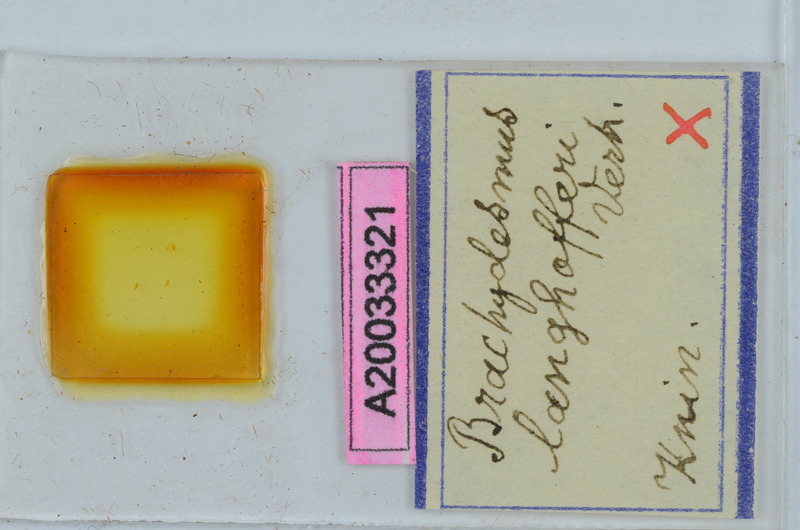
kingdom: Animalia
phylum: Arthropoda
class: Diplopoda
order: Polydesmida
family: Polydesmidae
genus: Brachydesmus
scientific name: Brachydesmus langhofferi
